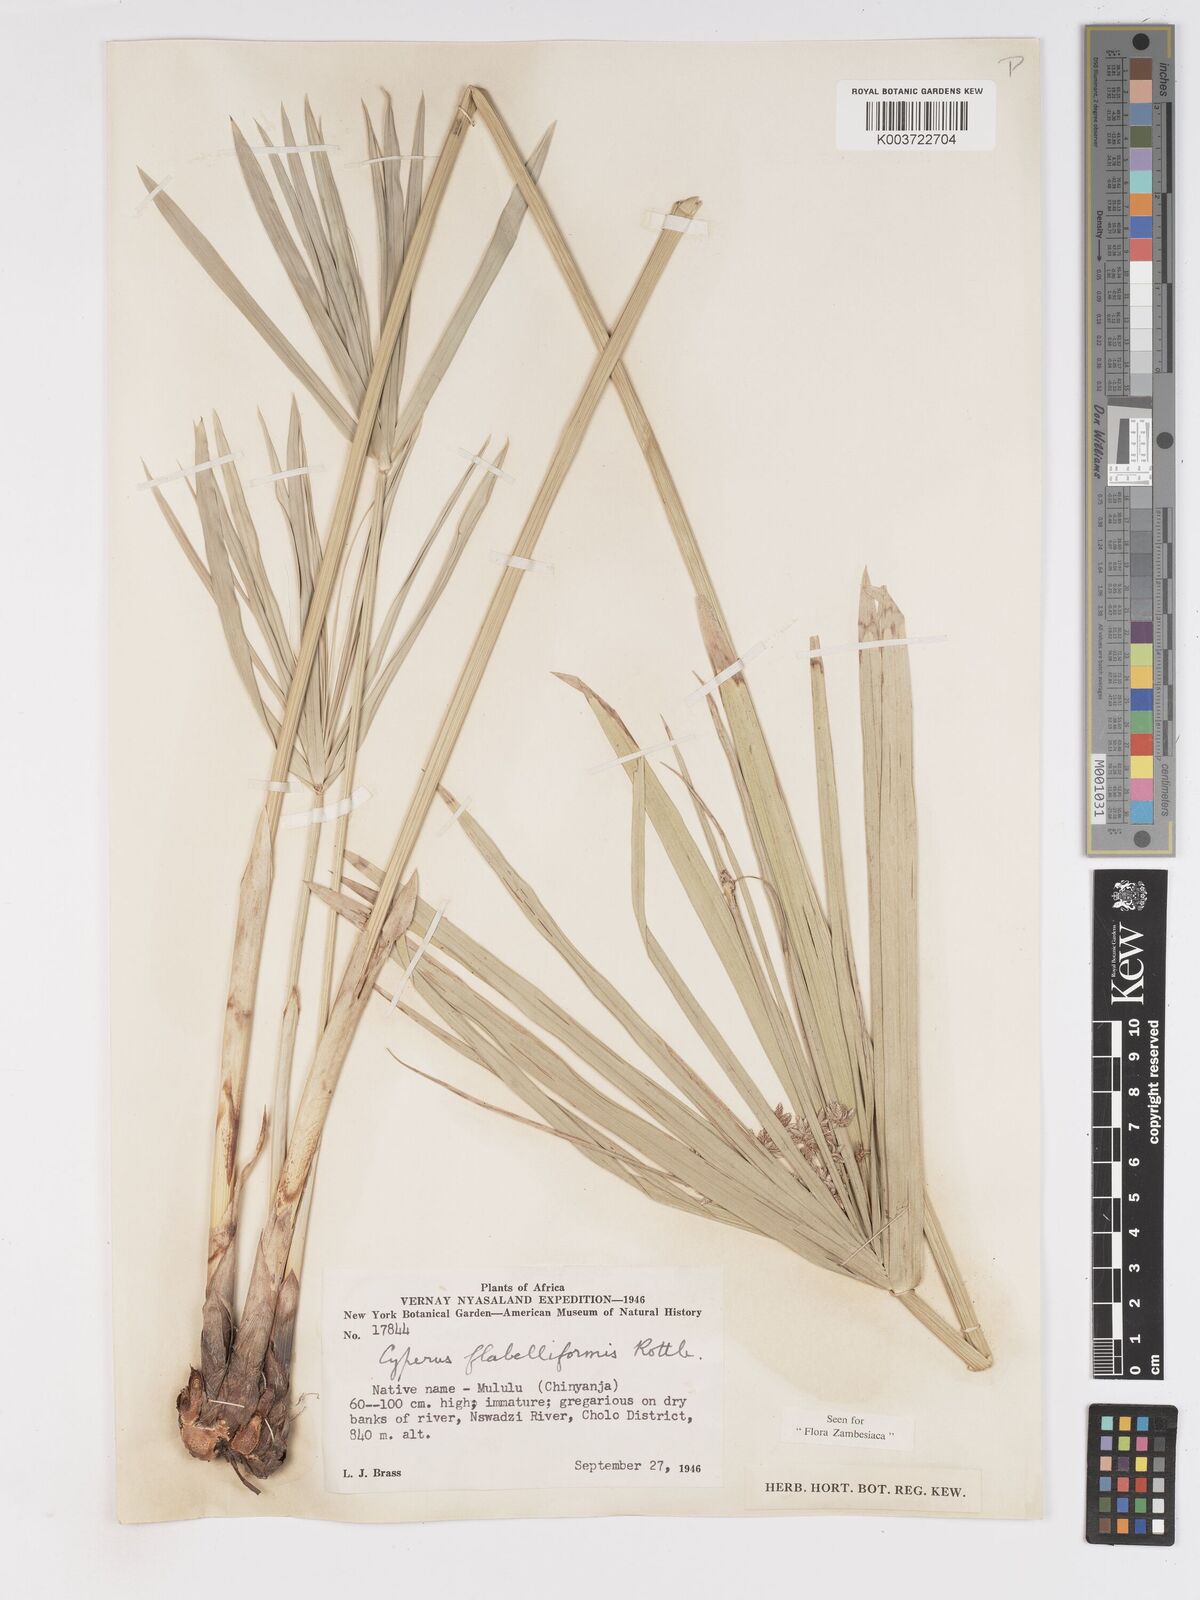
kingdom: Plantae
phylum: Tracheophyta
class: Liliopsida
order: Poales
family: Cyperaceae
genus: Cyperus
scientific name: Cyperus alternifolius
